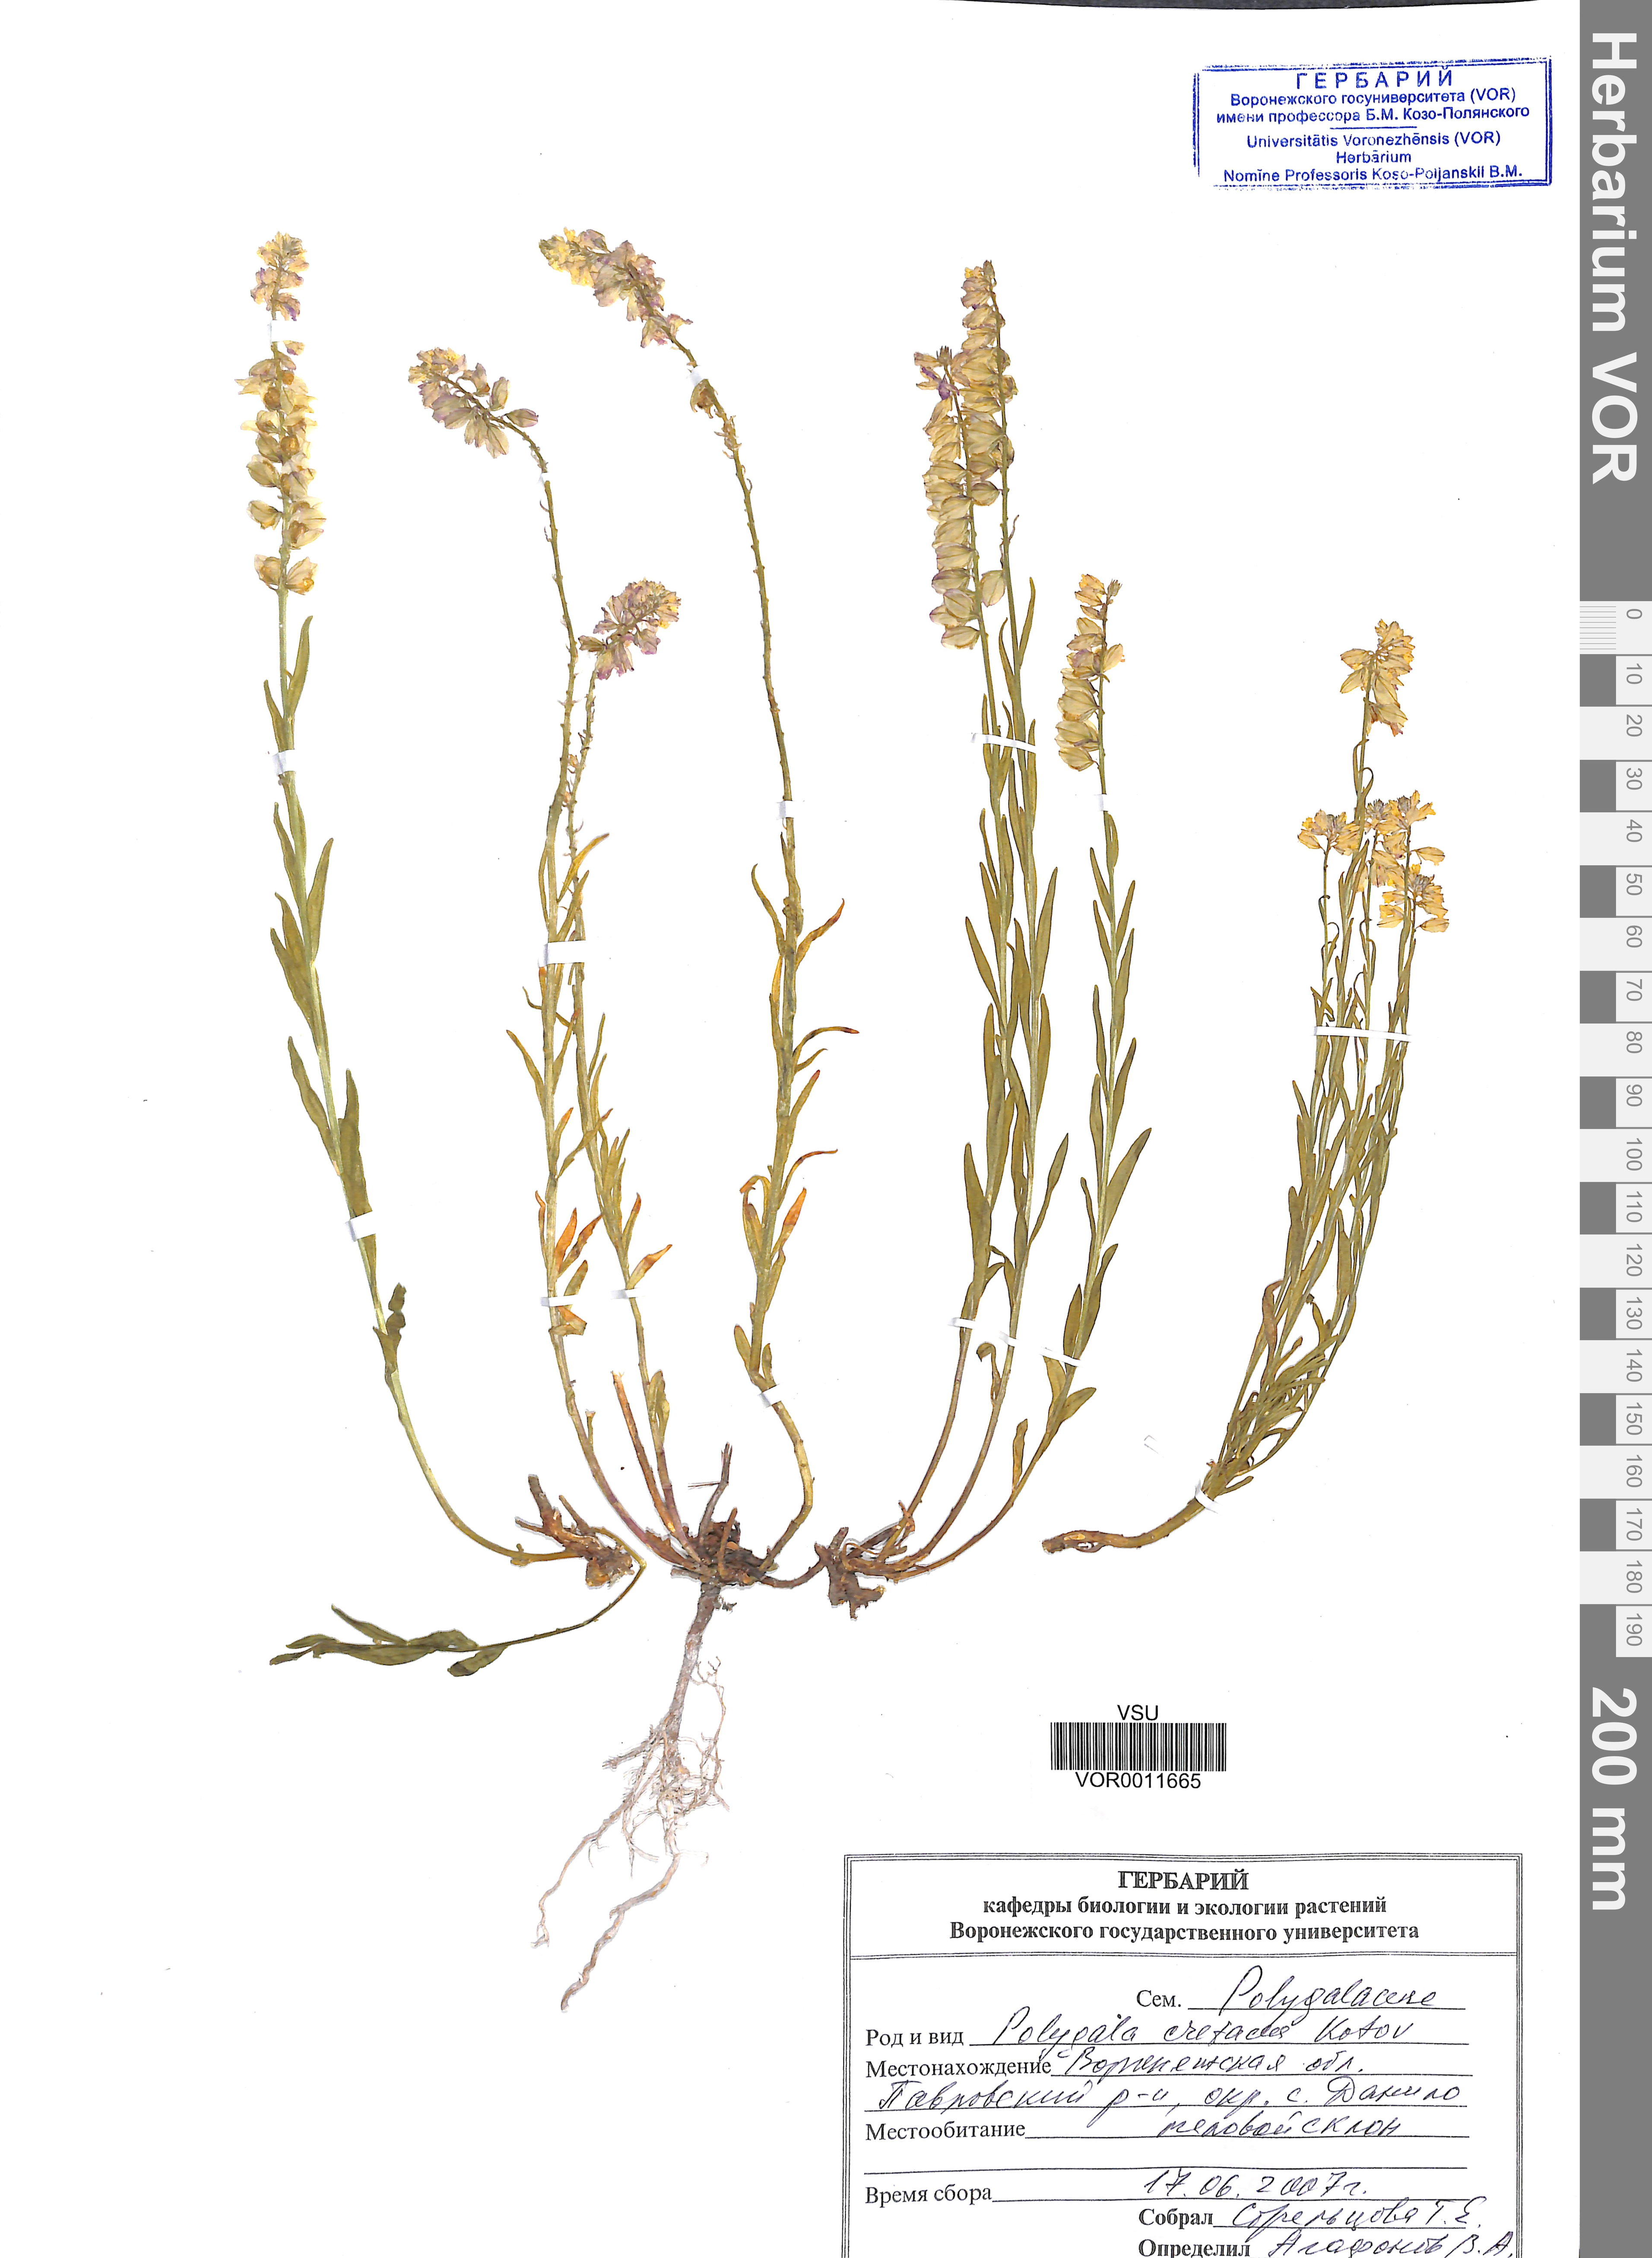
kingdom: Plantae
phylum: Tracheophyta
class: Magnoliopsida
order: Fabales
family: Polygalaceae
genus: Polygala
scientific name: Polygala nicaeensis
